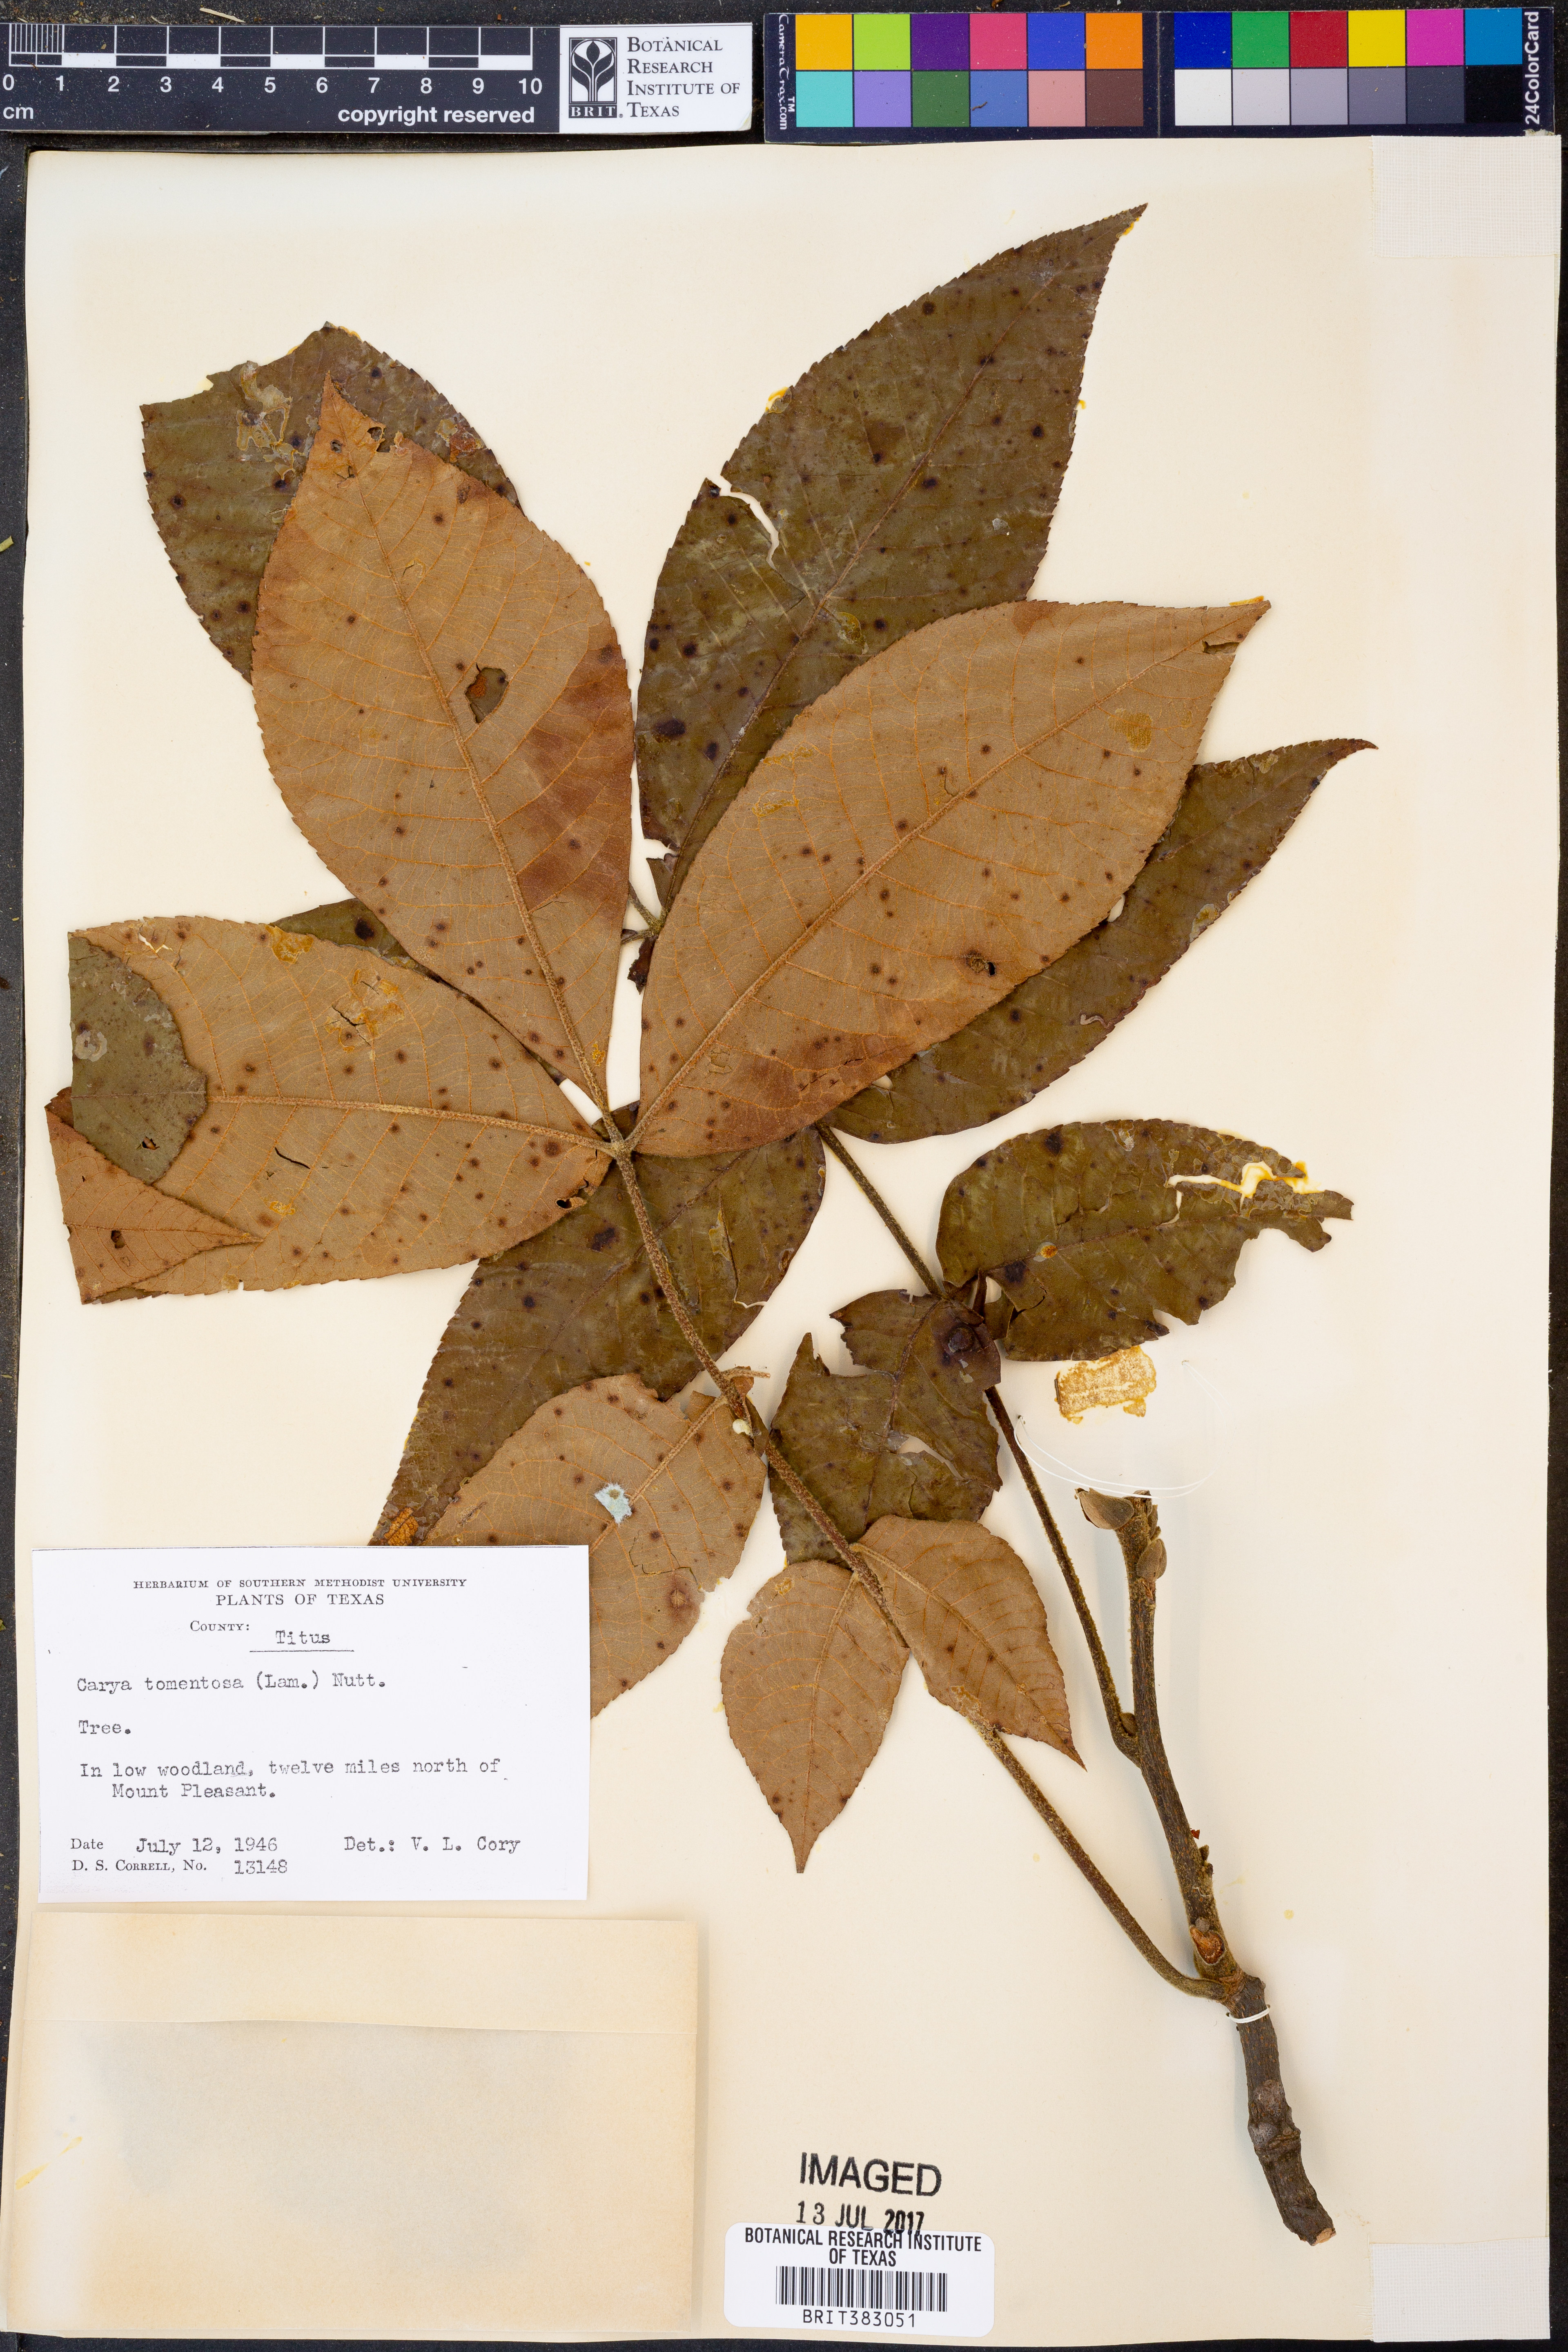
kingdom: Plantae
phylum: Tracheophyta
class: Magnoliopsida
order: Fagales
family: Juglandaceae
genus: Carya
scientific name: Carya alba
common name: Mockernut hickory
